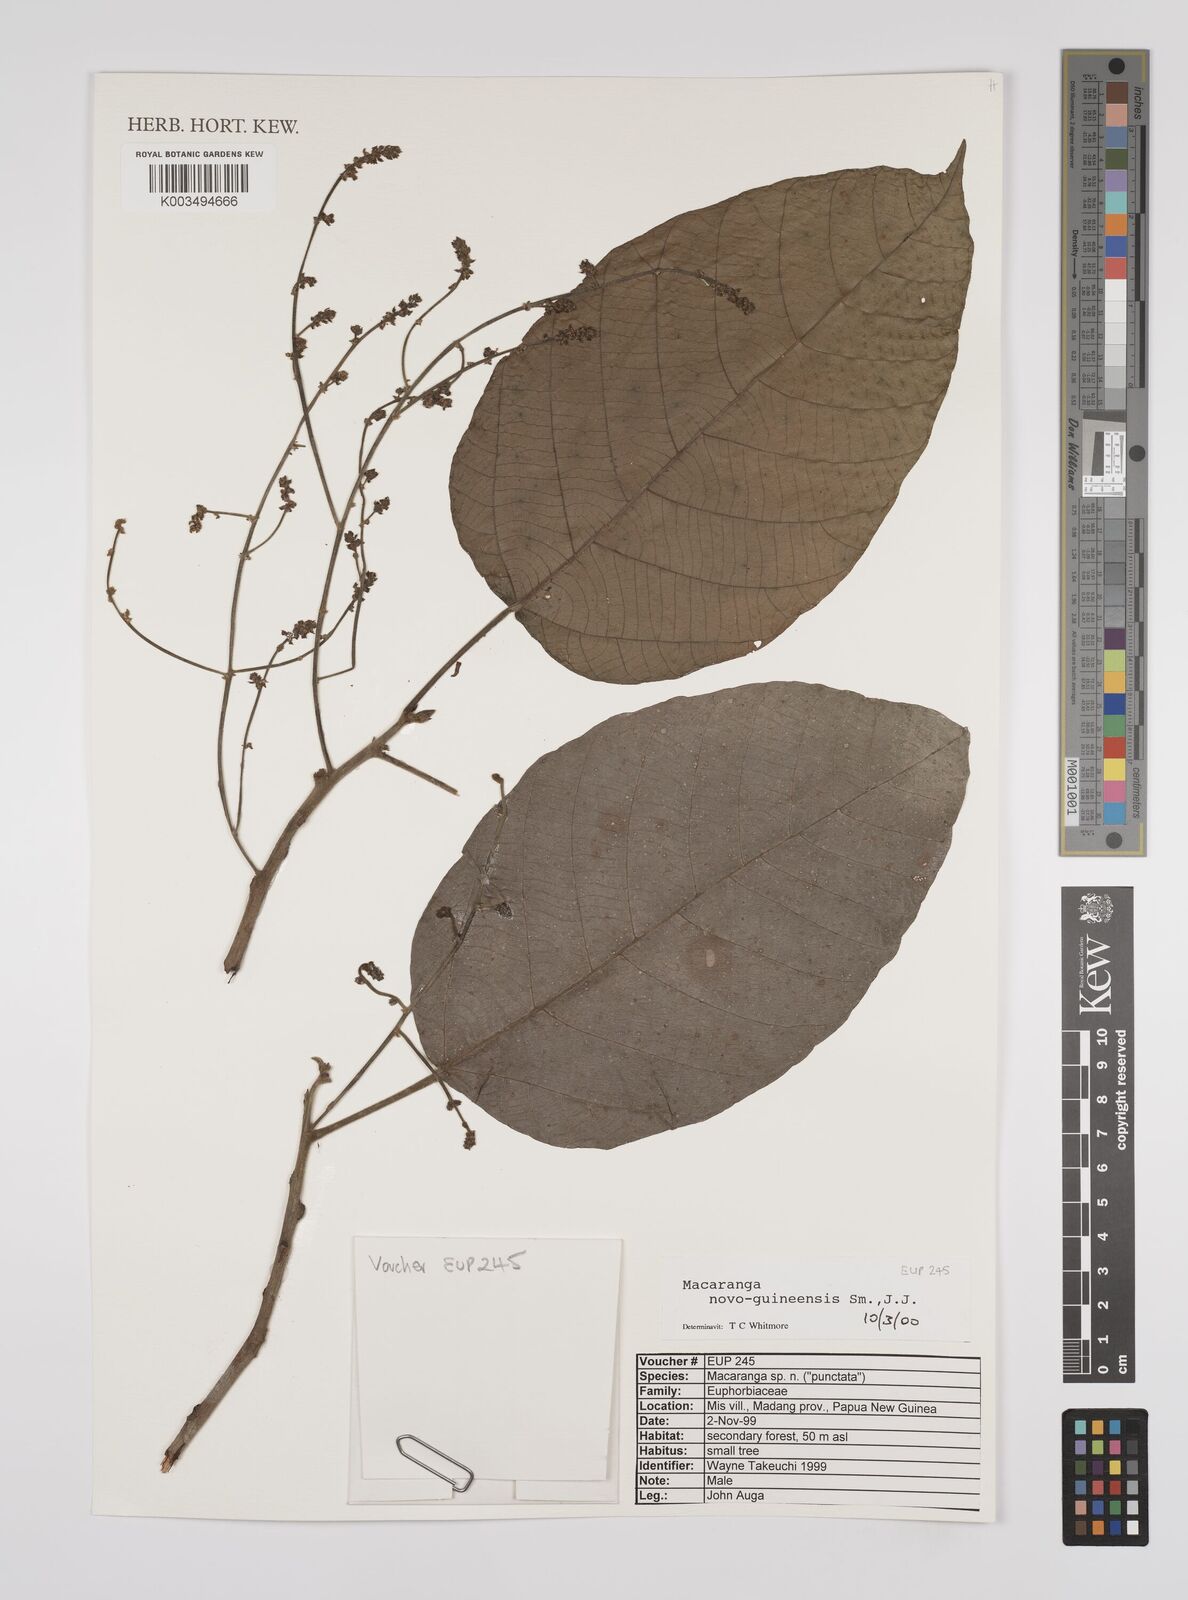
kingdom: Plantae
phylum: Tracheophyta
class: Magnoliopsida
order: Malpighiales
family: Euphorbiaceae
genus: Macaranga
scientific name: Macaranga novoguineensis
